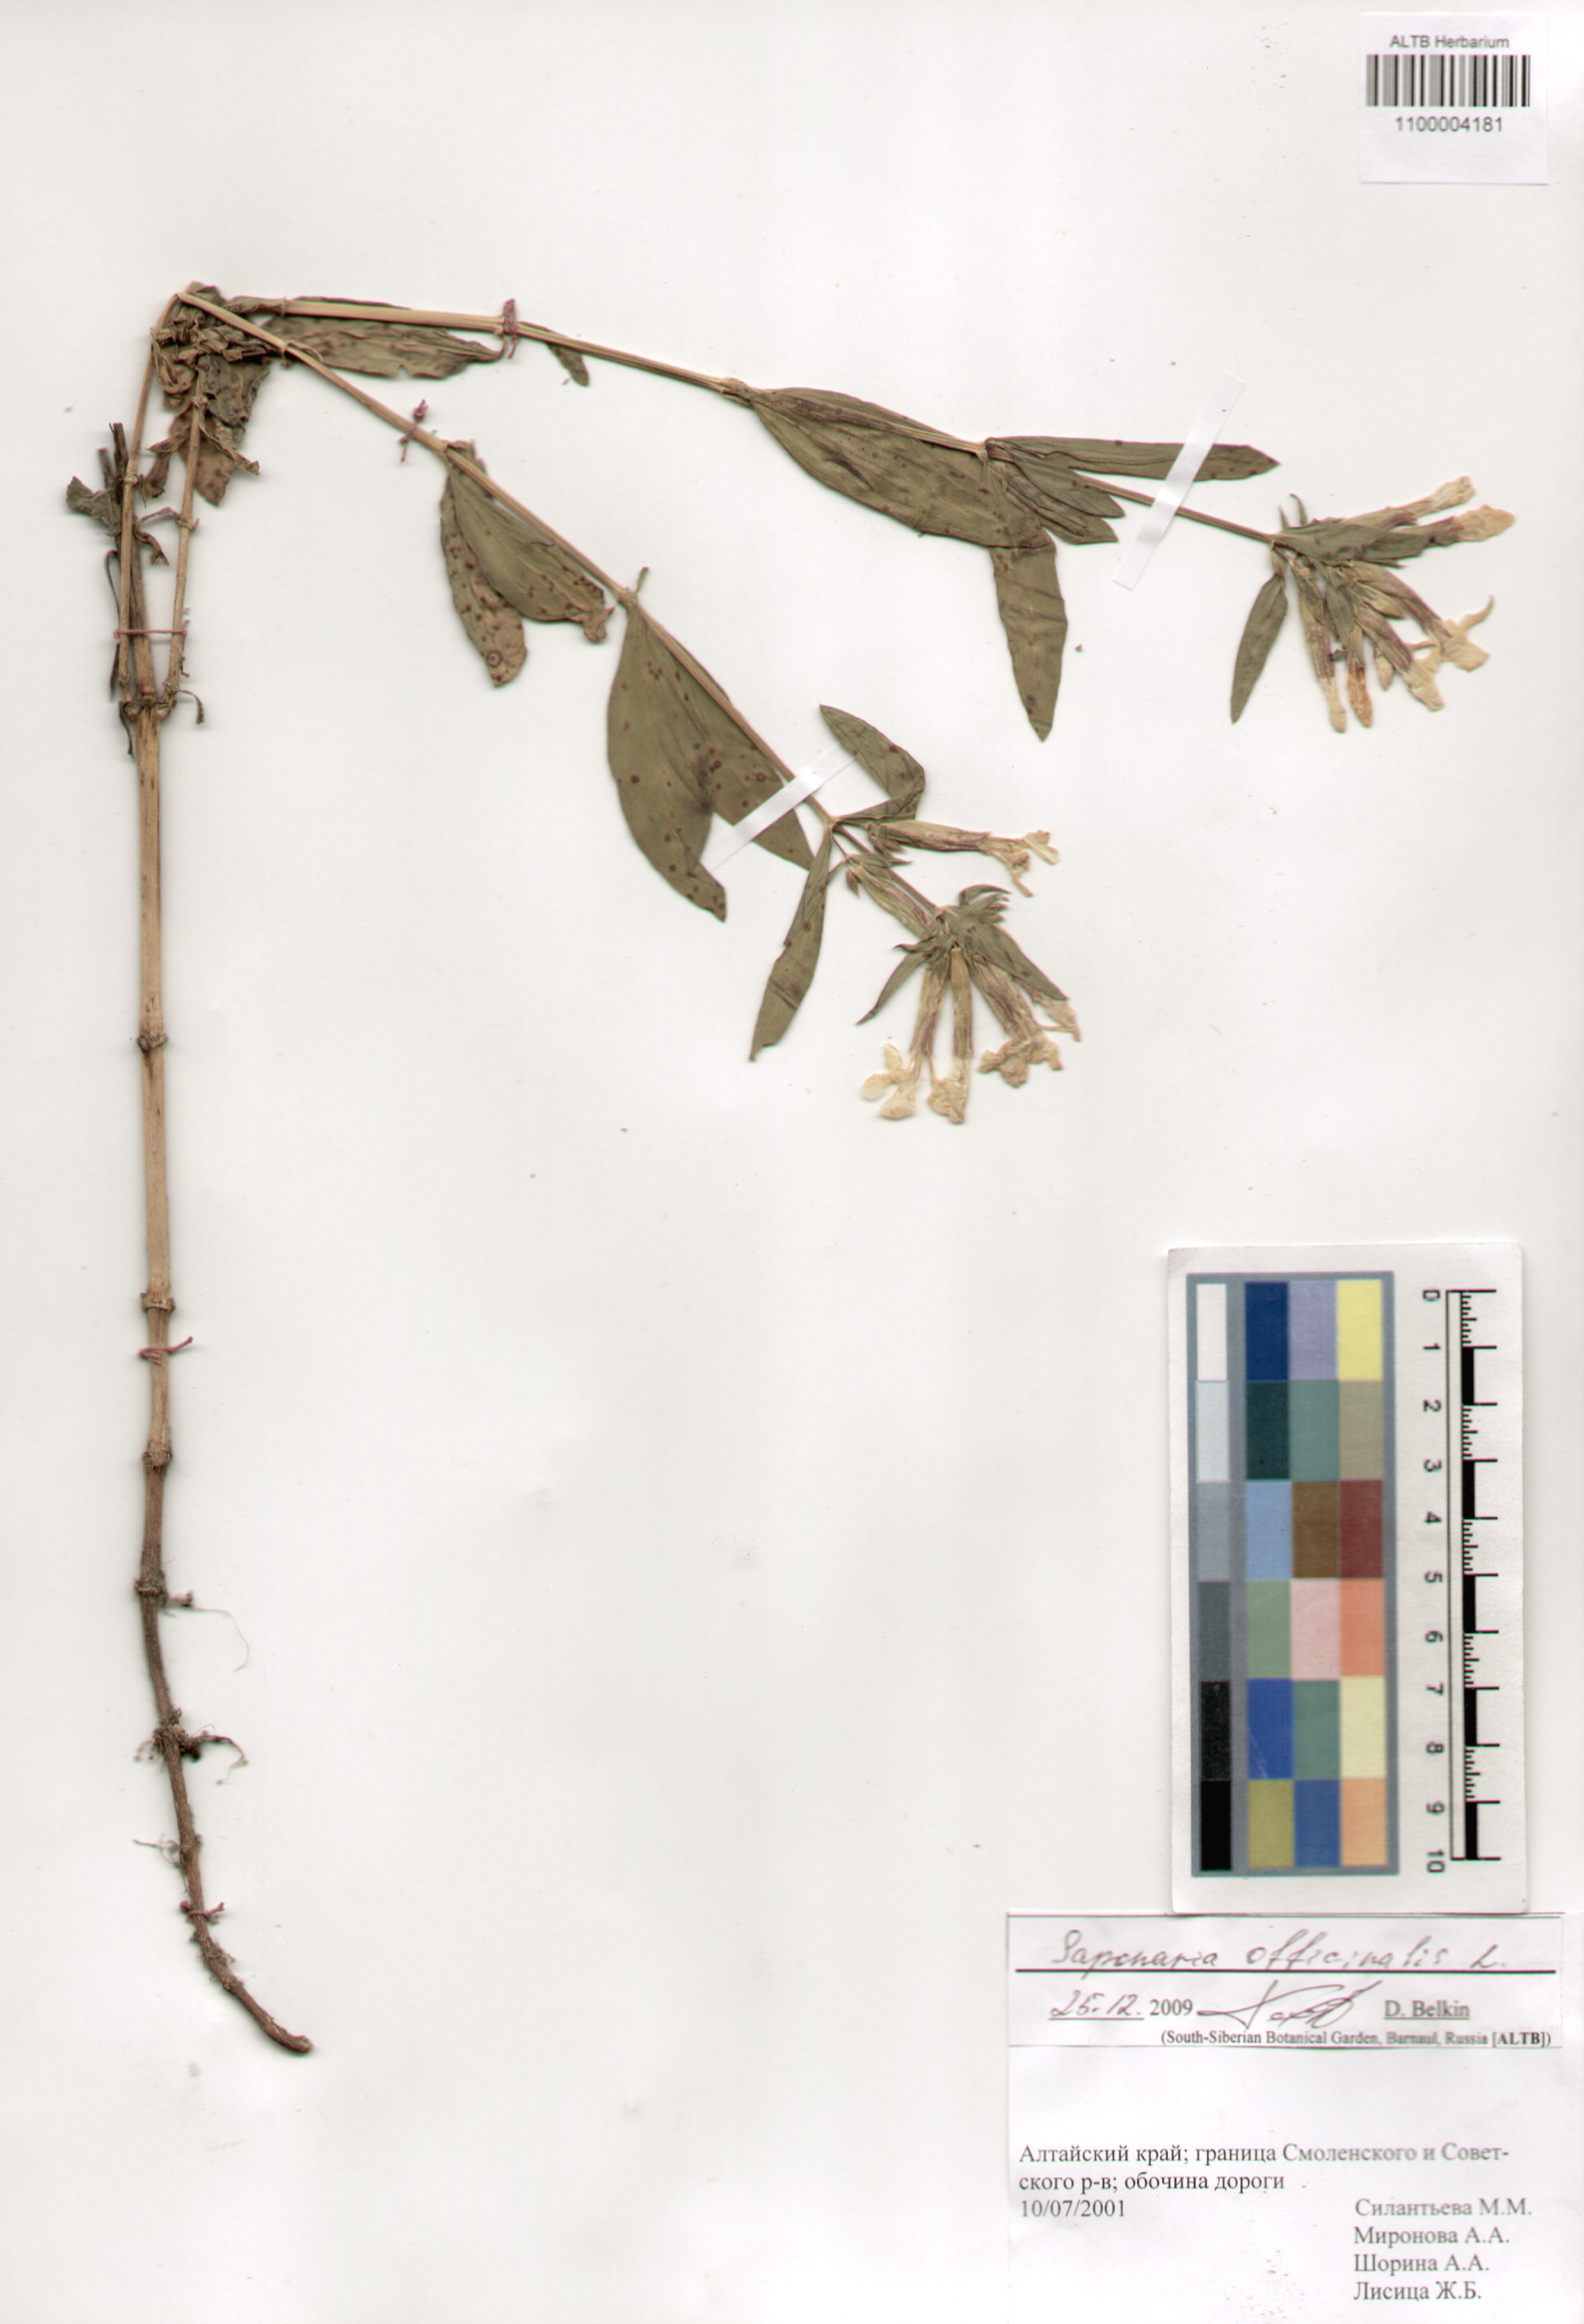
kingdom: Plantae
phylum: Tracheophyta
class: Magnoliopsida
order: Caryophyllales
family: Caryophyllaceae
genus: Saponaria
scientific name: Saponaria officinalis
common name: Soapwort
